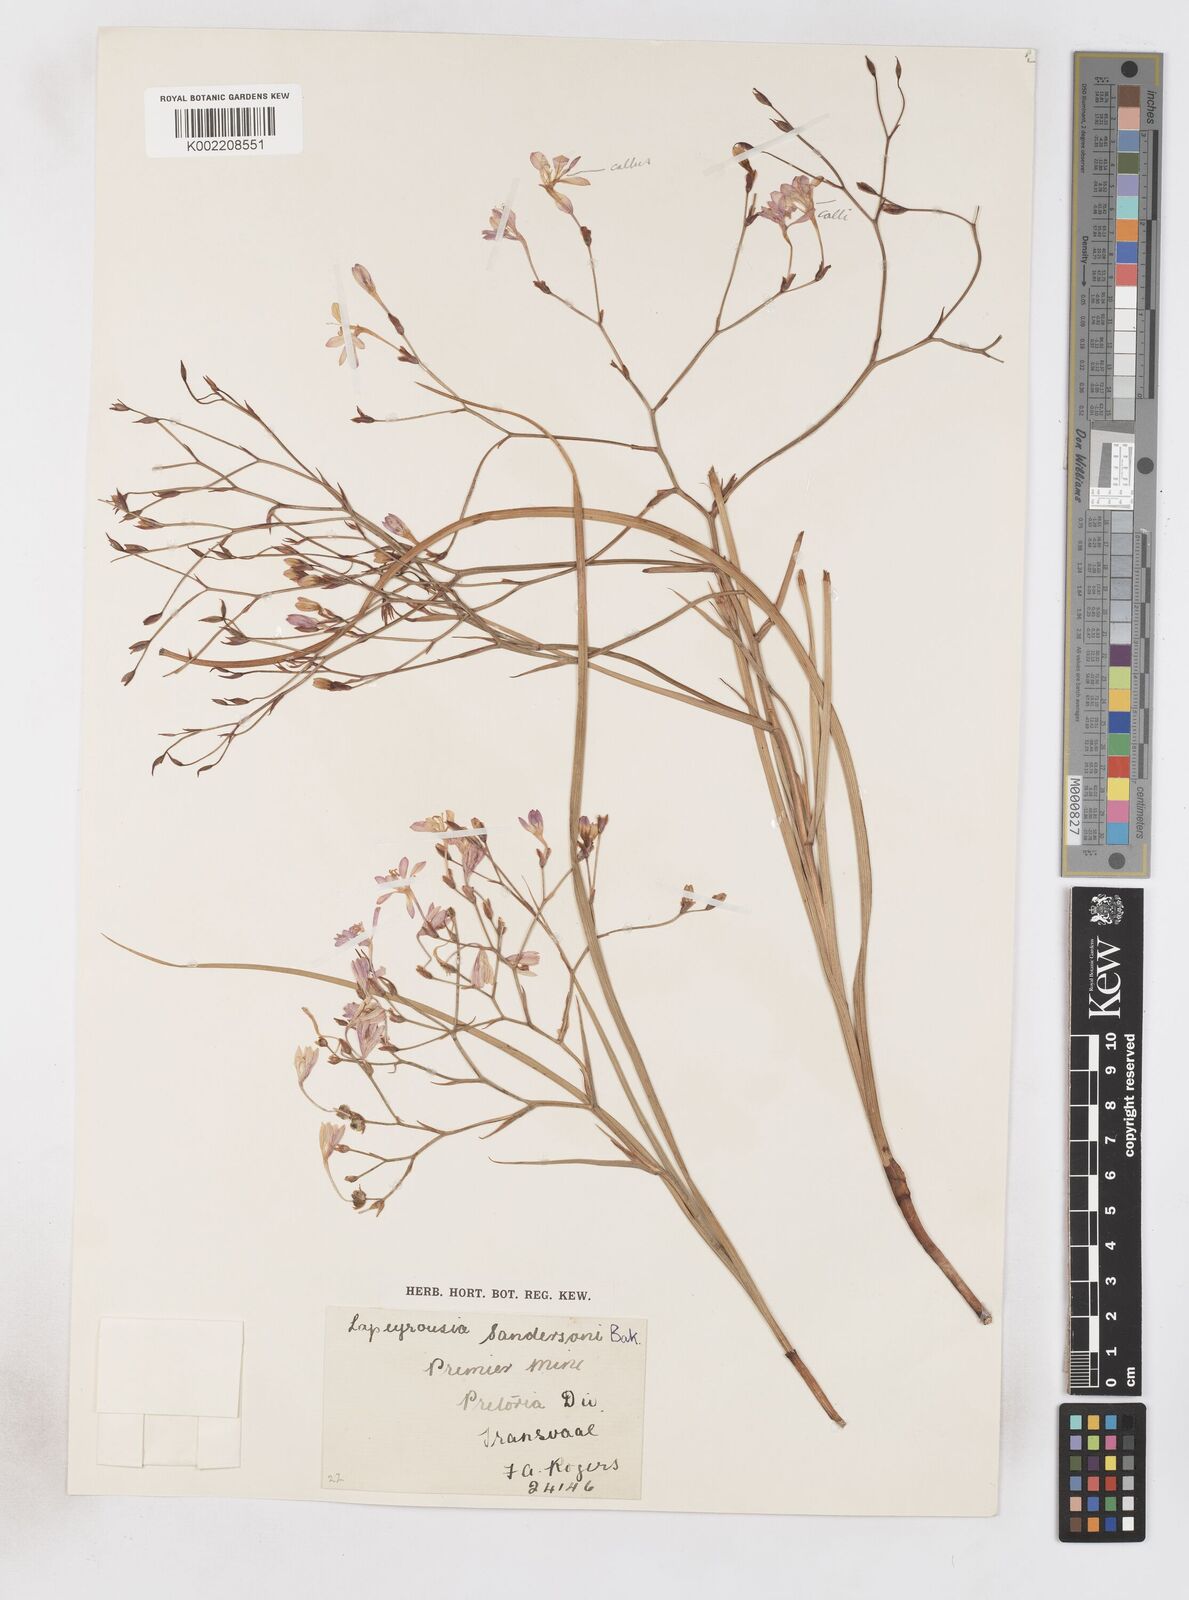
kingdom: Plantae
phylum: Tracheophyta
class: Liliopsida
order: Asparagales
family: Iridaceae
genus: Afrosolen
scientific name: Afrosolen sandersonii
